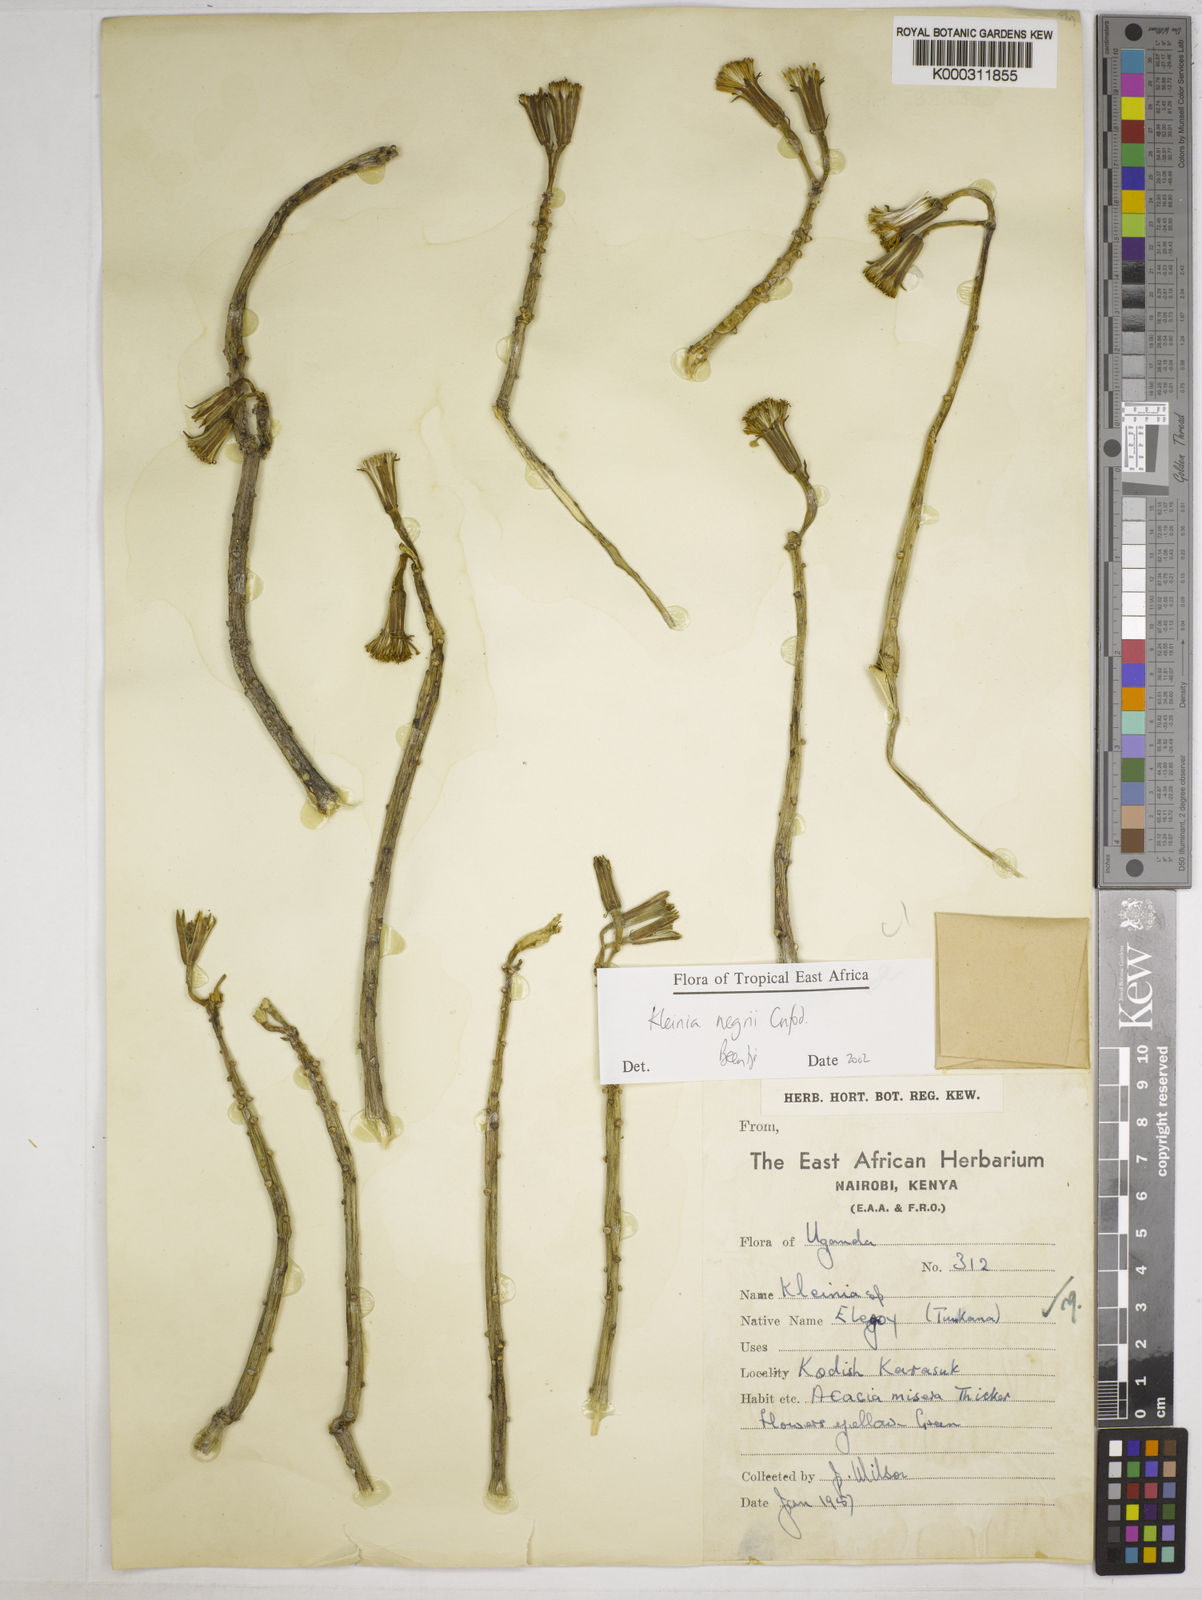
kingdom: Plantae
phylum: Tracheophyta
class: Magnoliopsida
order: Asterales
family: Asteraceae
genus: Kleinia
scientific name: Kleinia negrii
